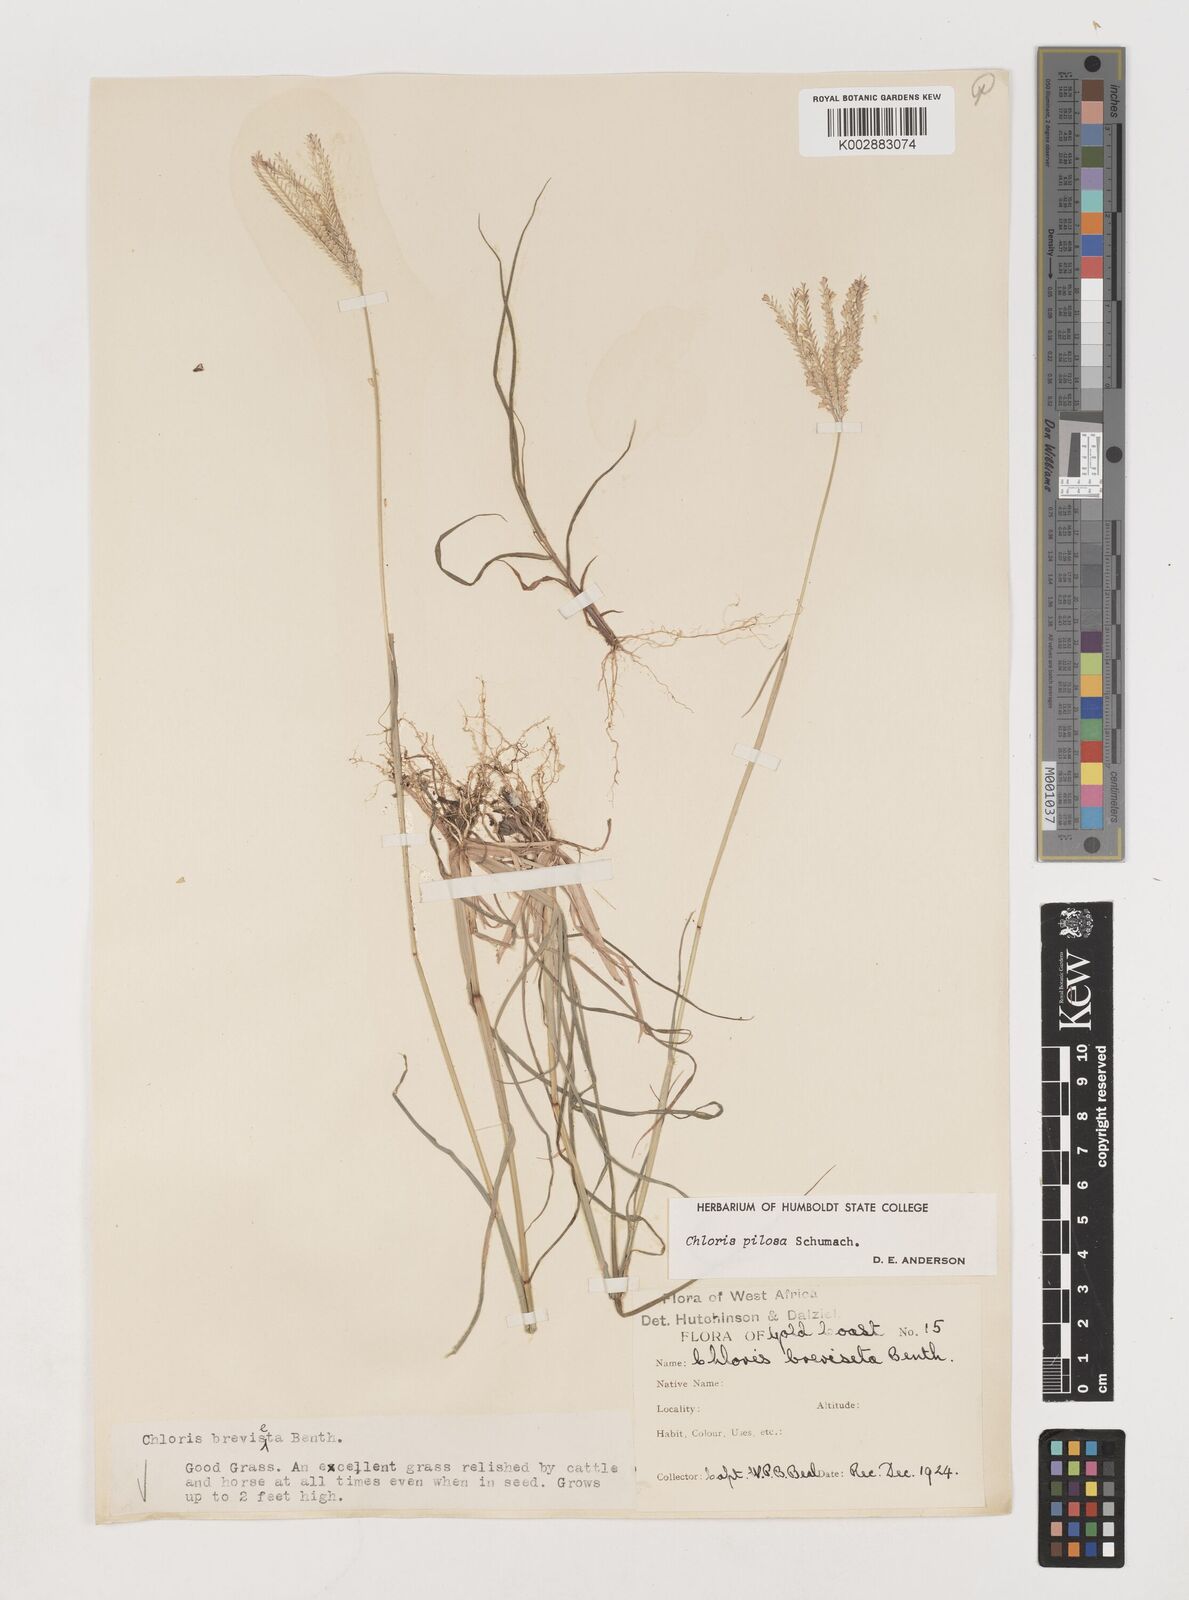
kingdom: Plantae
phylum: Tracheophyta
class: Liliopsida
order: Poales
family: Poaceae
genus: Chloris
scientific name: Chloris pilosa
